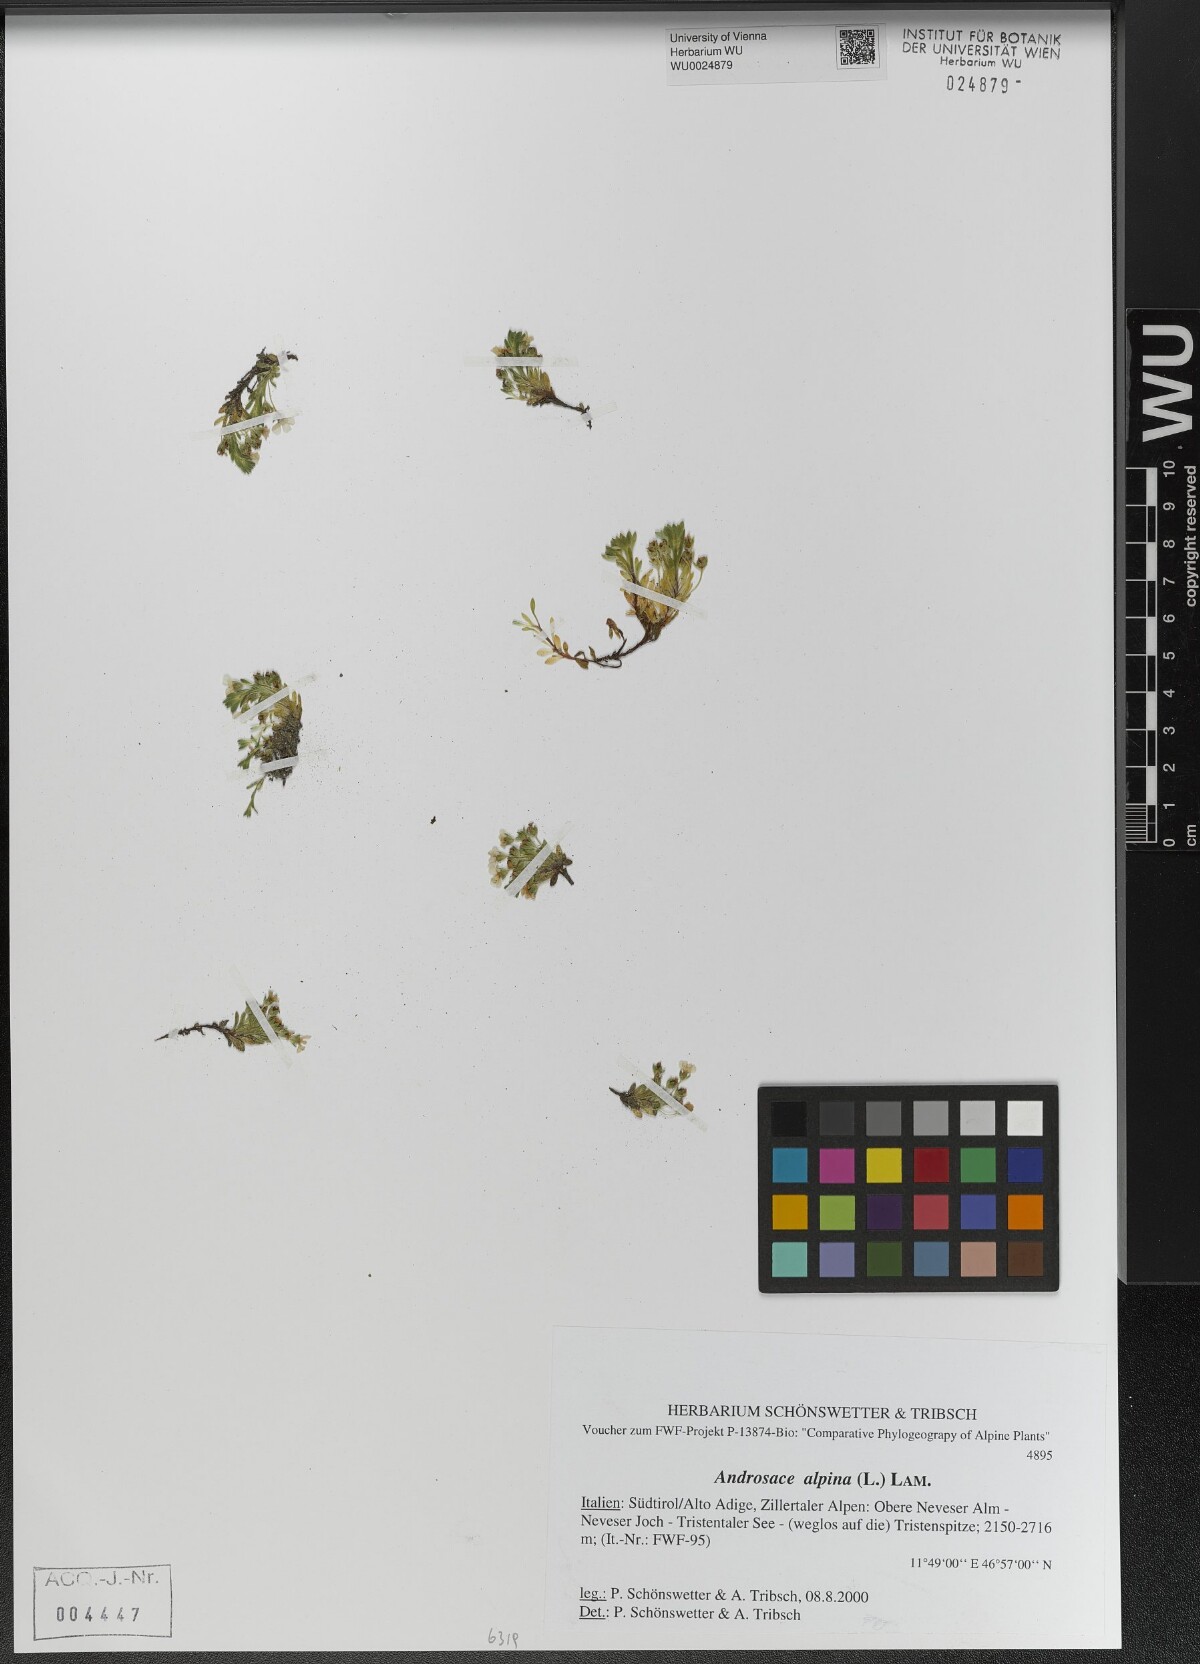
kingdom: Plantae
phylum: Tracheophyta
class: Magnoliopsida
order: Ericales
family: Primulaceae
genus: Androsace
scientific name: Androsace alpina
